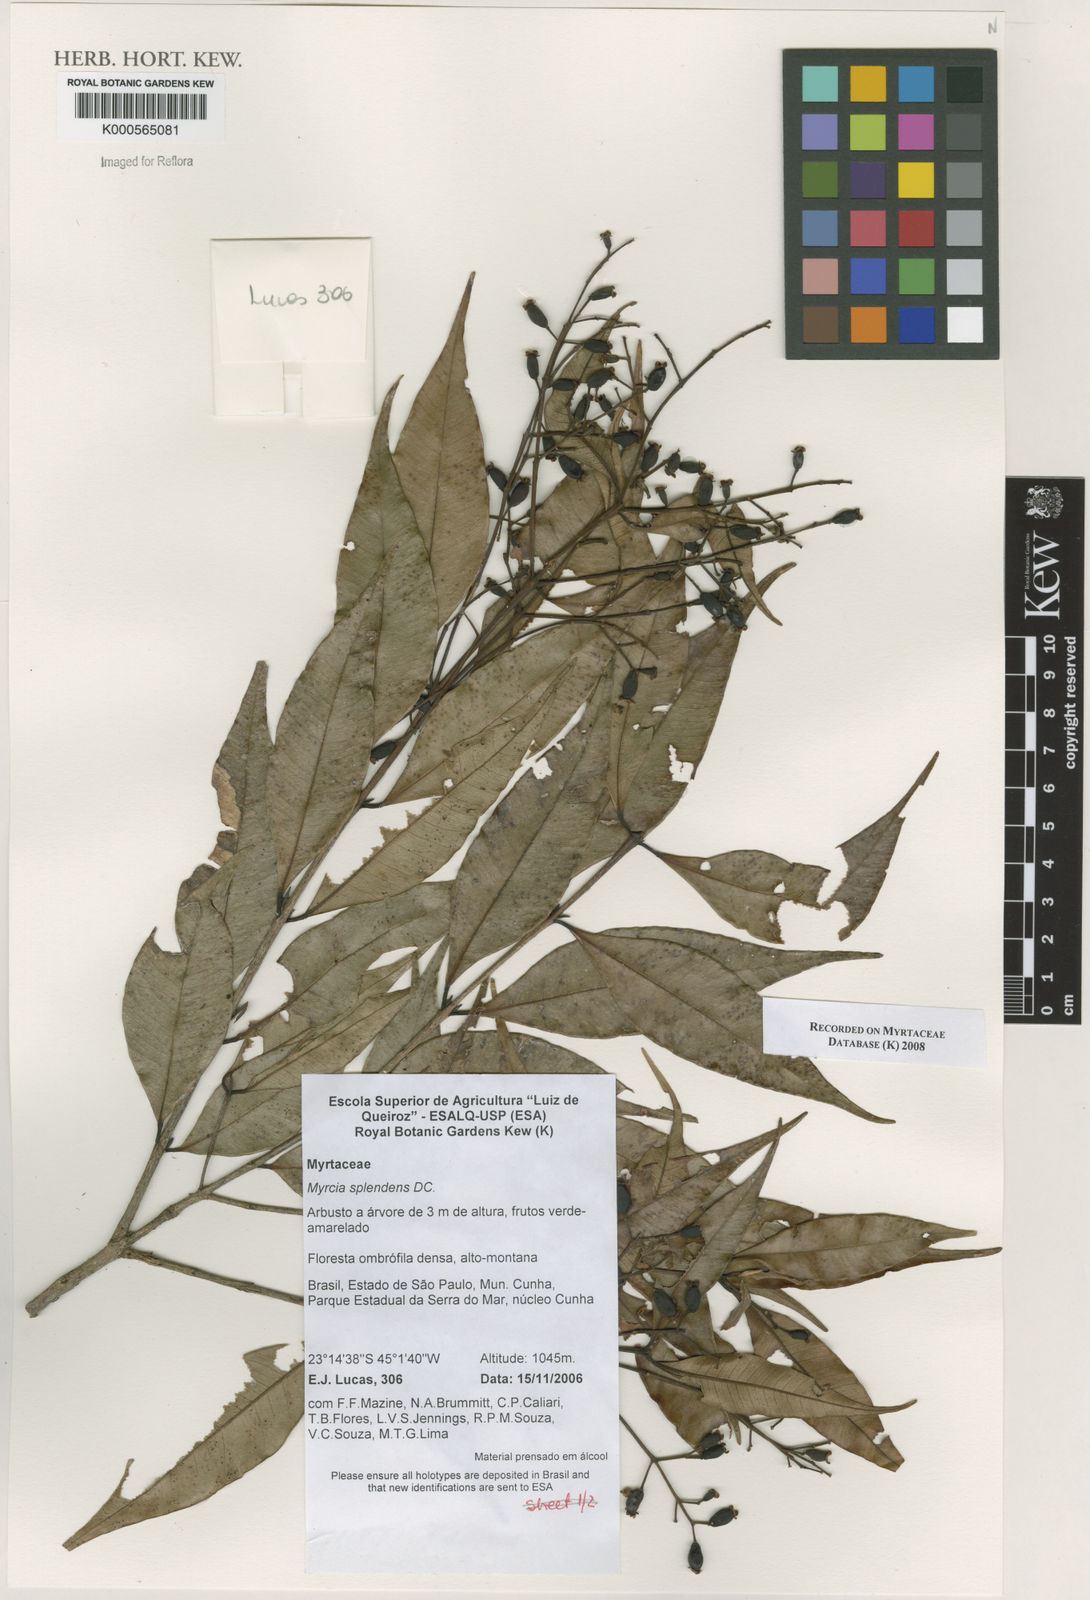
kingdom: Plantae
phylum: Tracheophyta
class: Magnoliopsida
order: Myrtales
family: Myrtaceae
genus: Myrcia
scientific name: Myrcia splendens
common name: Surinam cherry
